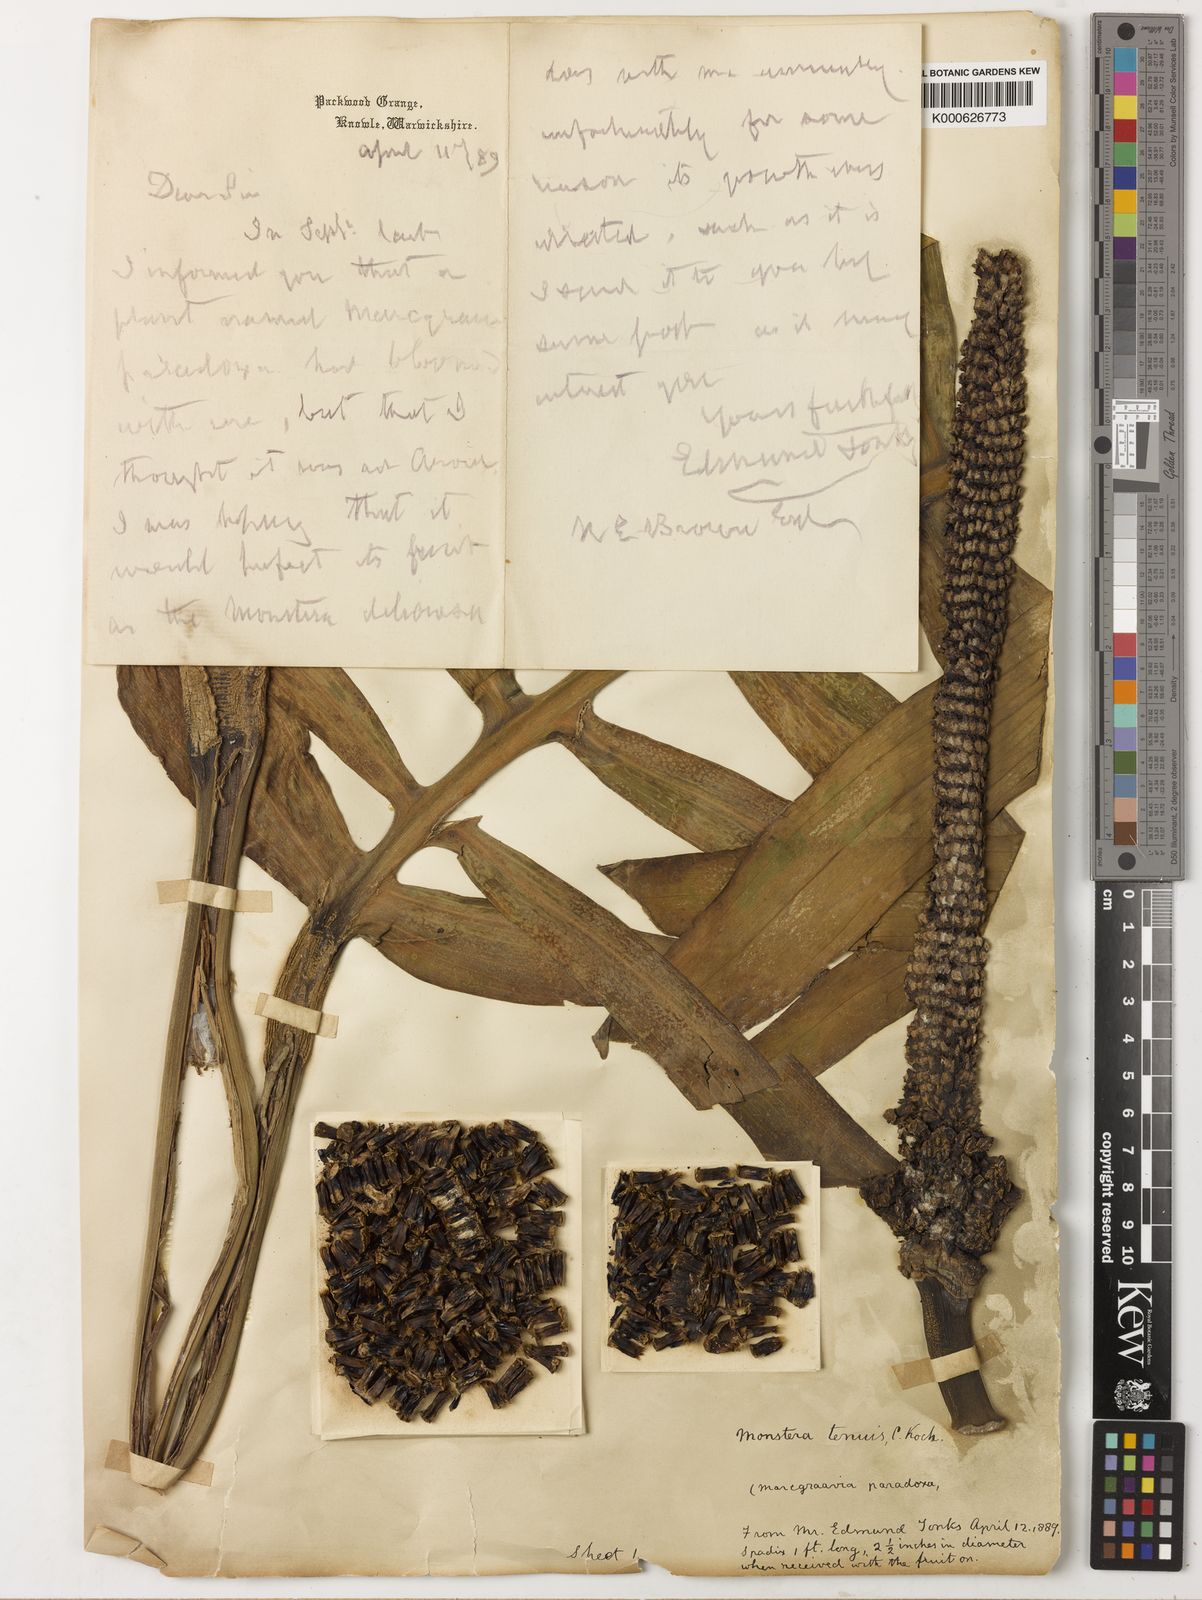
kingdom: Plantae
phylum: Tracheophyta
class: Liliopsida
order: Alismatales
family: Araceae
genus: Monstera
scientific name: Monstera tenuis
